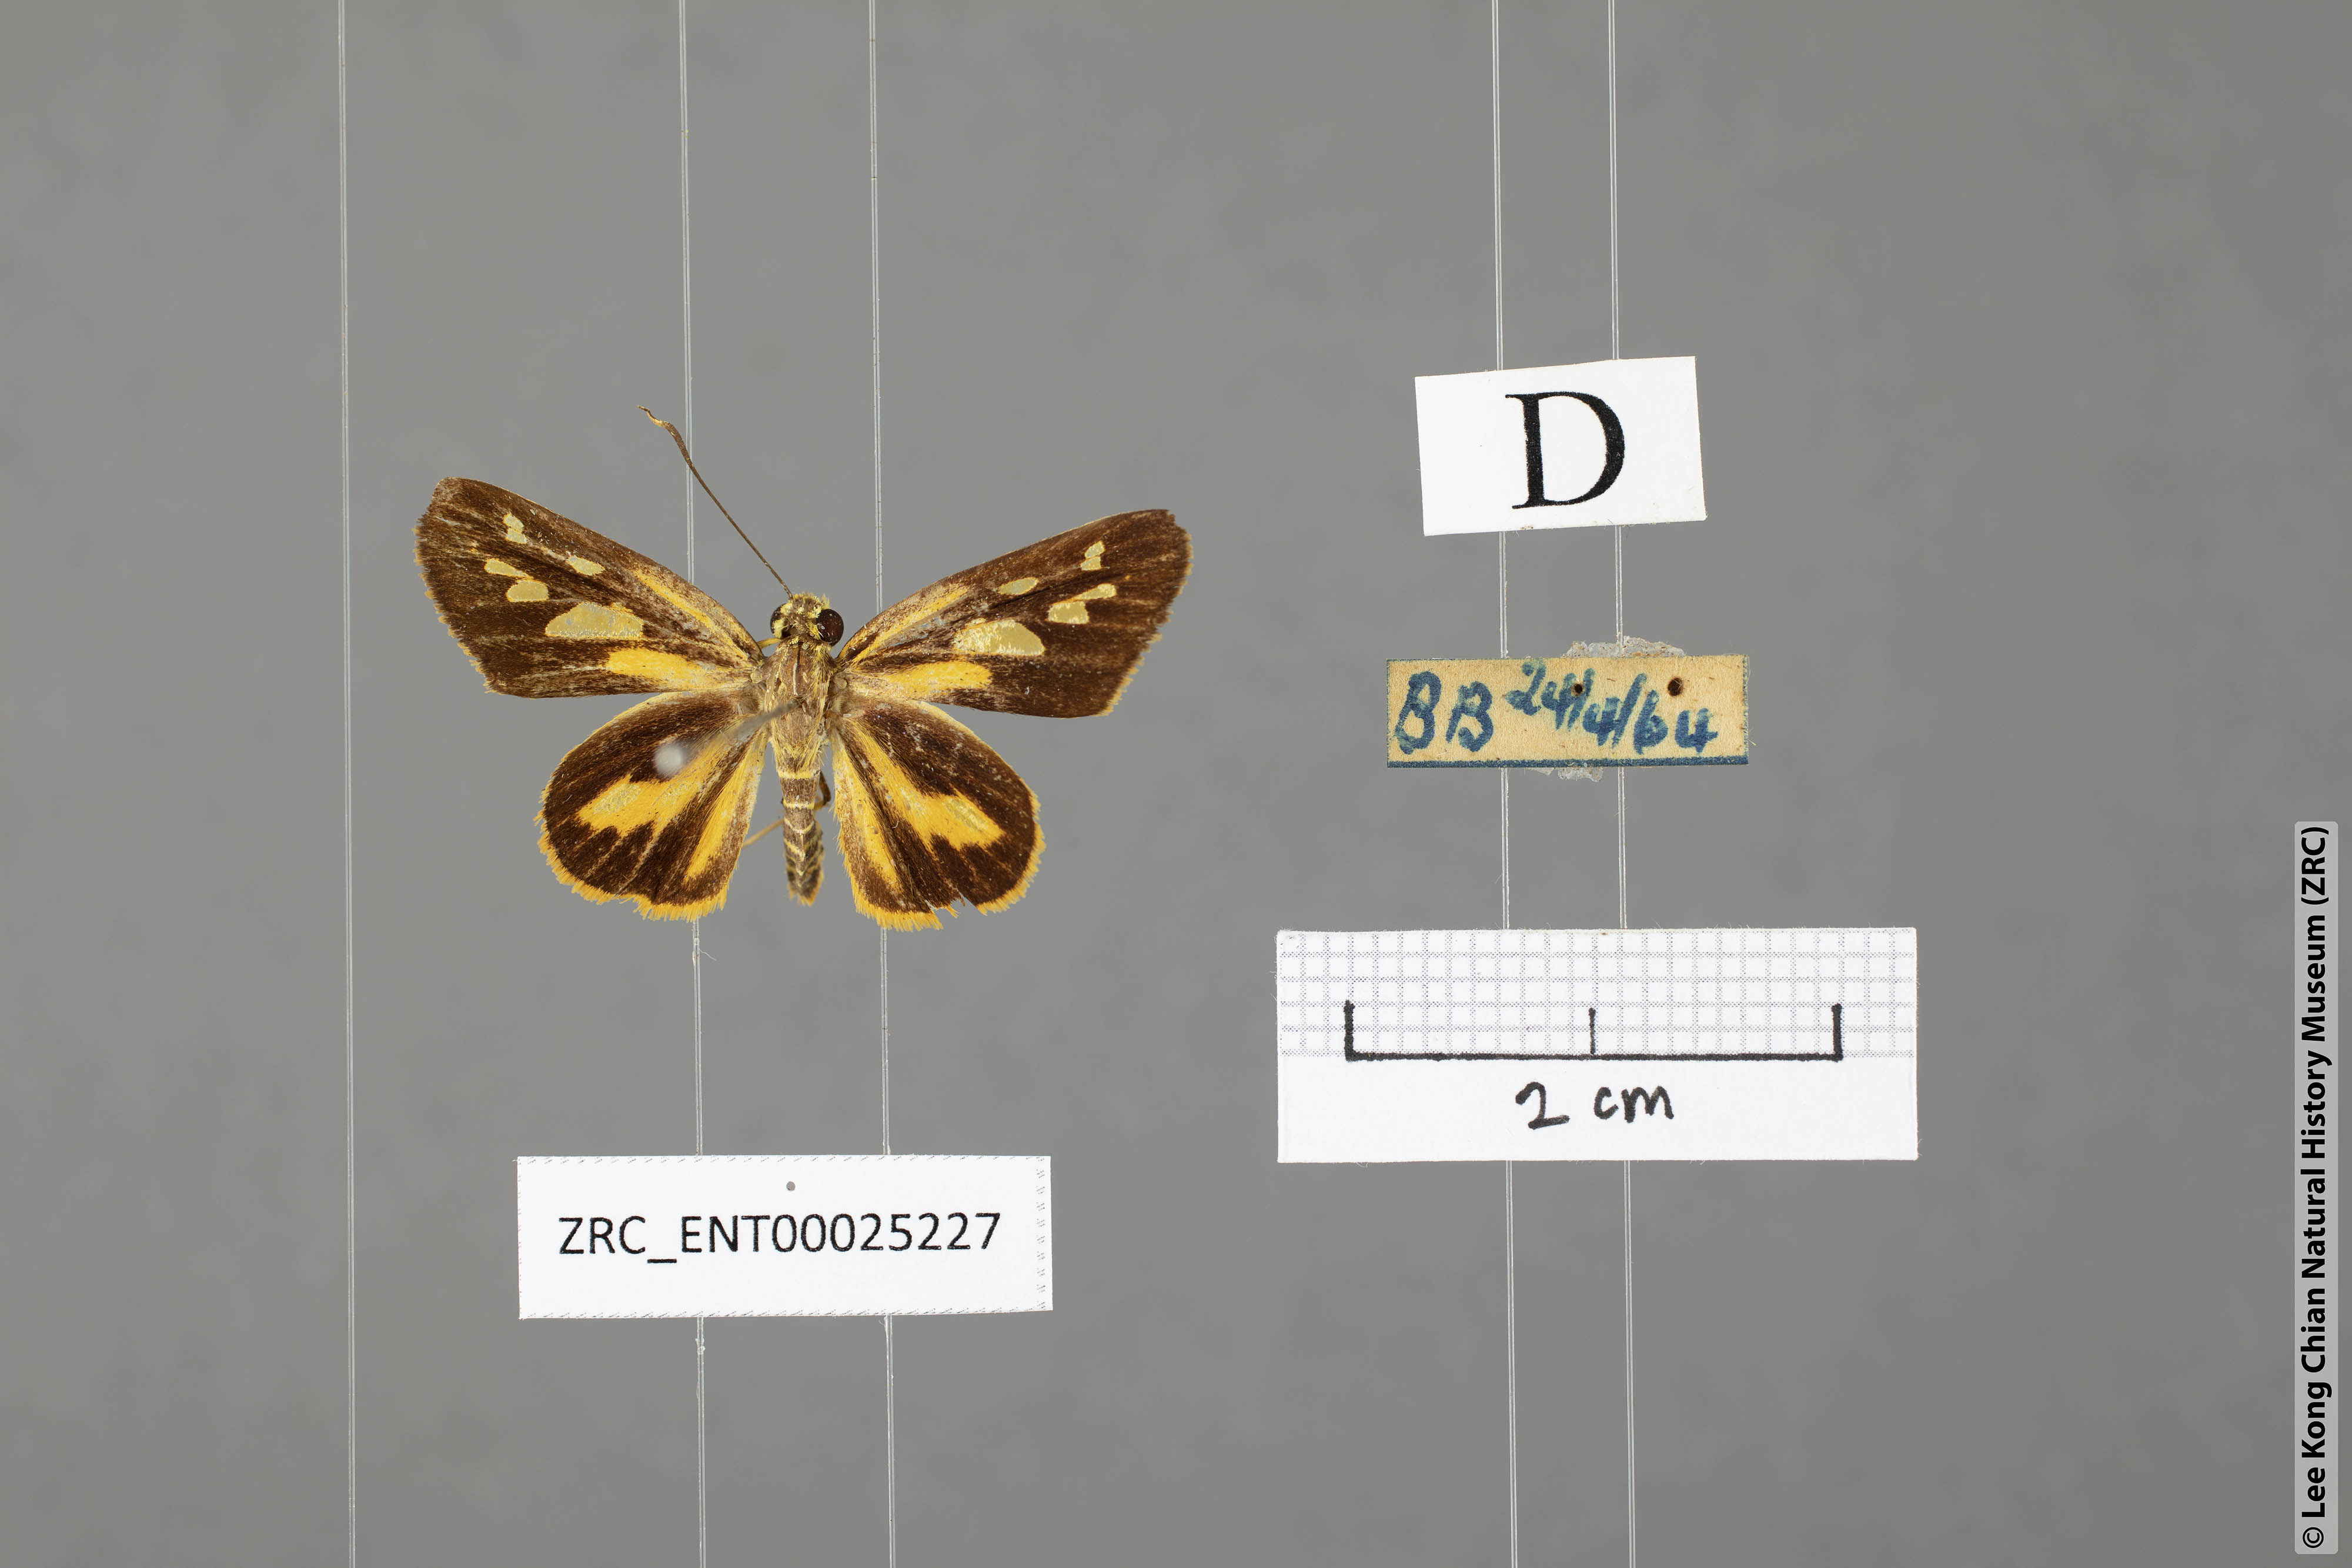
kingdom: Animalia
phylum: Arthropoda
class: Insecta
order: Lepidoptera
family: Hesperiidae
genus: Pyroneura
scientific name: Pyroneura flavia
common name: Lesser lancer
